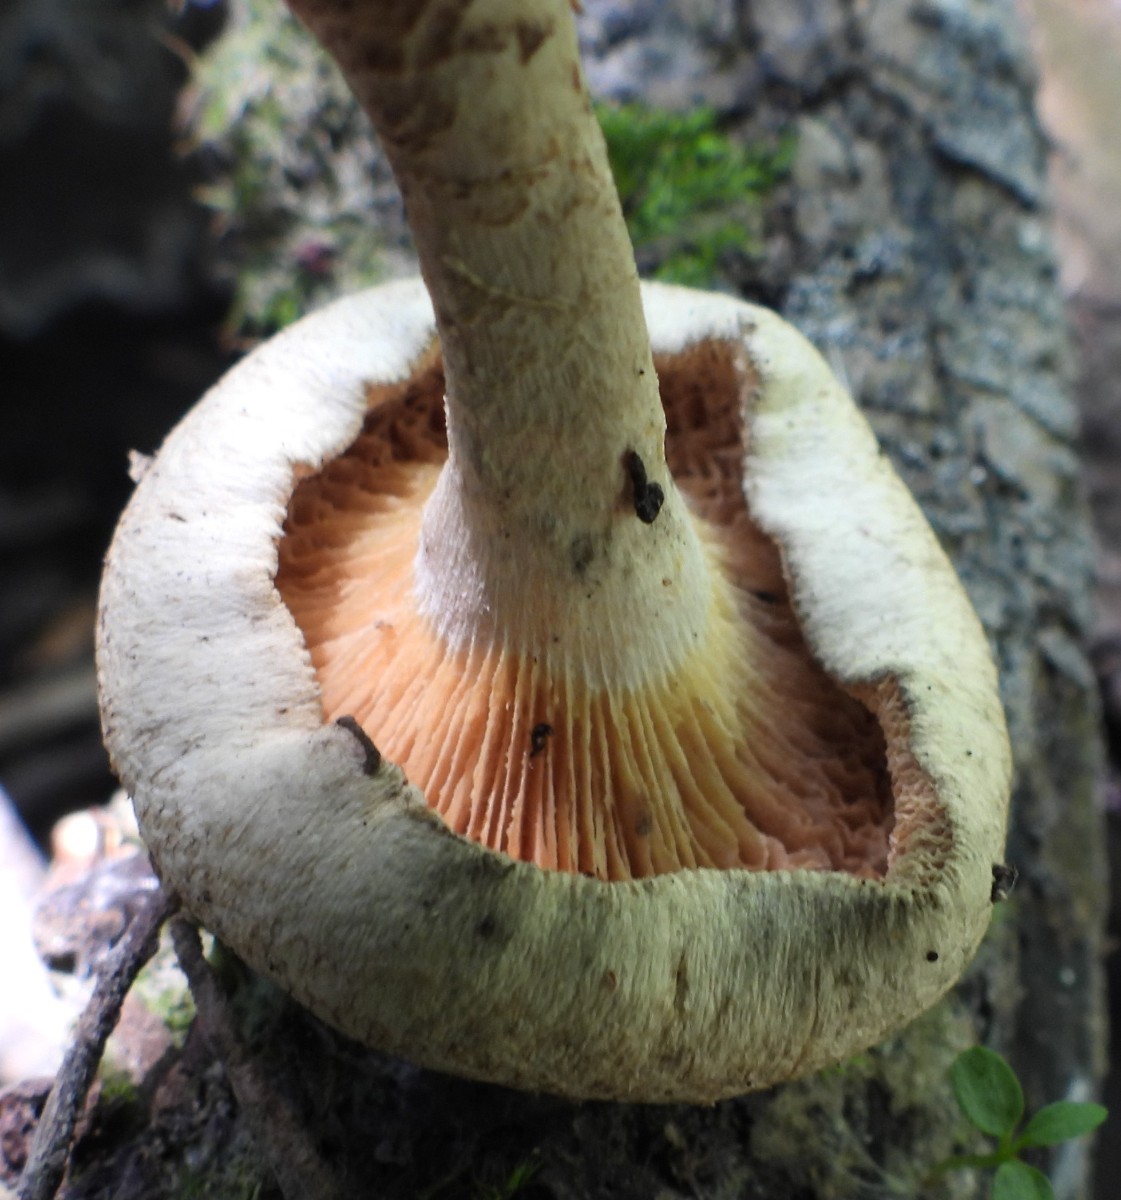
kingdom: Fungi
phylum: Basidiomycota
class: Agaricomycetes
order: Polyporales
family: Polyporaceae
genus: Lentinus
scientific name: Lentinus tigrinus
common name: tigerhat
